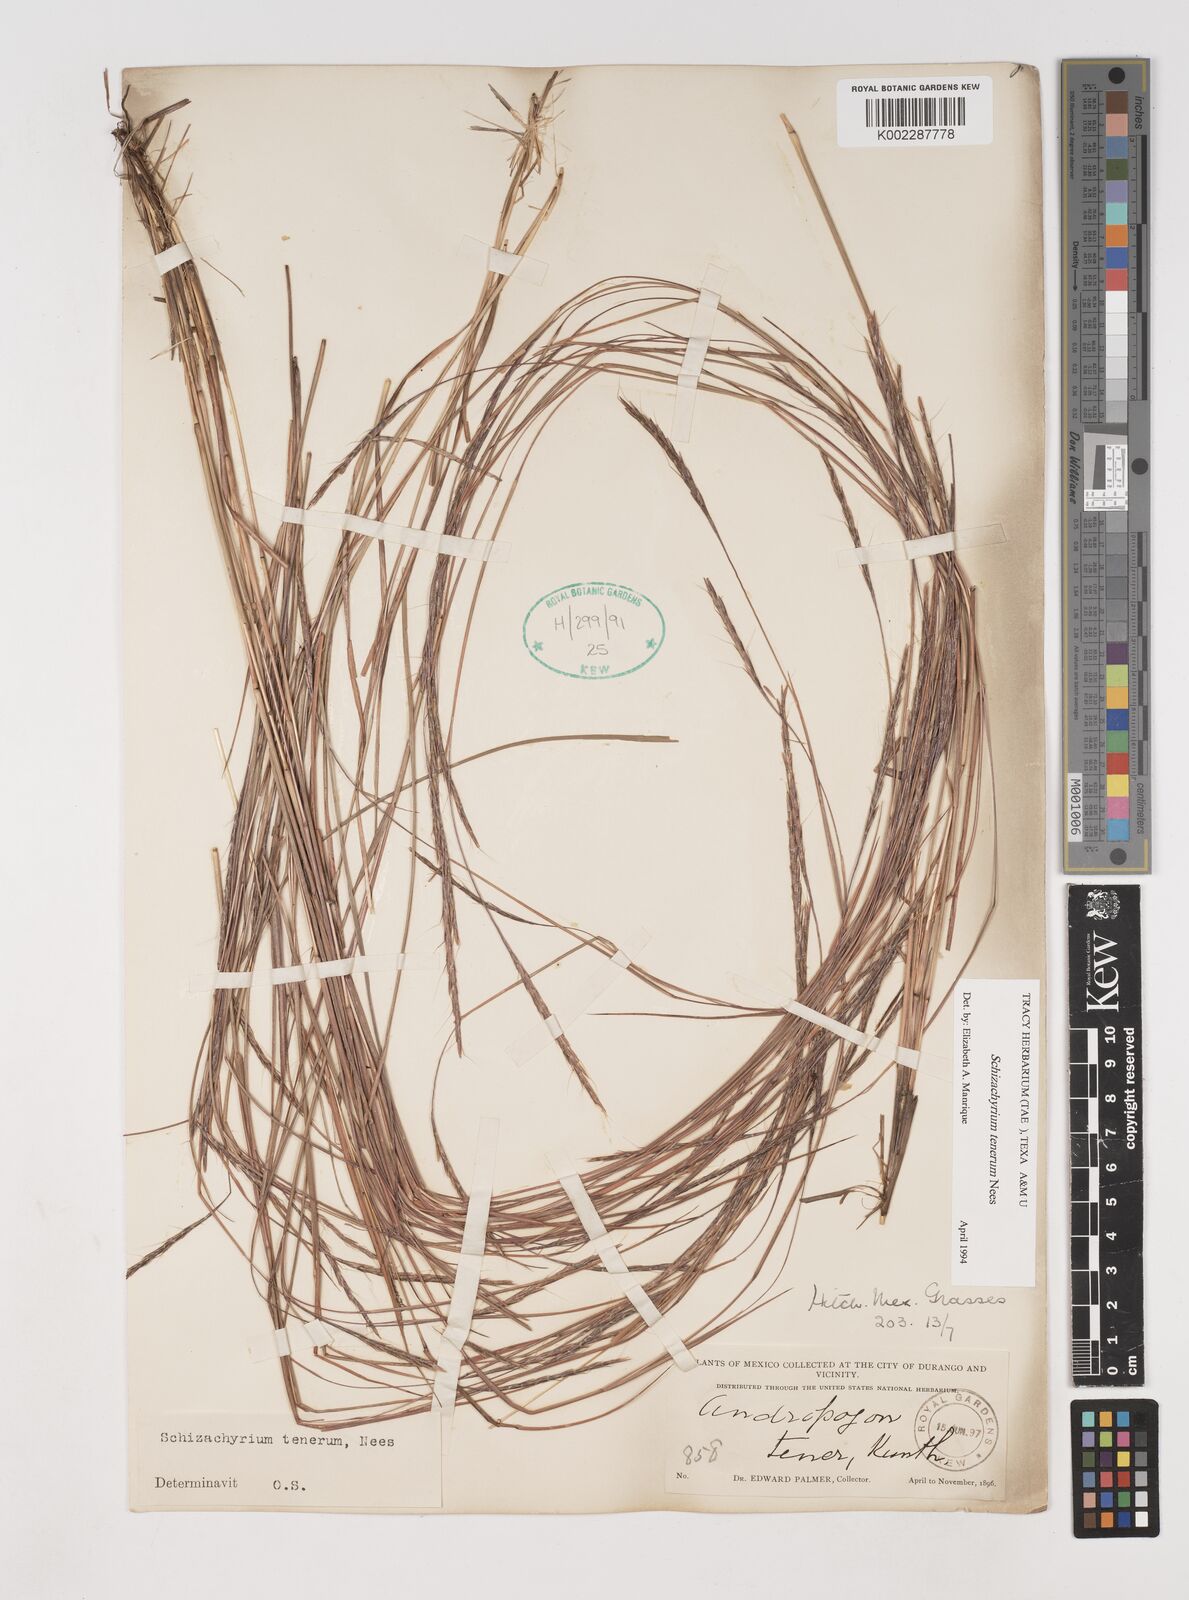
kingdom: Plantae
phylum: Tracheophyta
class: Liliopsida
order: Poales
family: Poaceae
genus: Andropogon
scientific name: Andropogon tener
